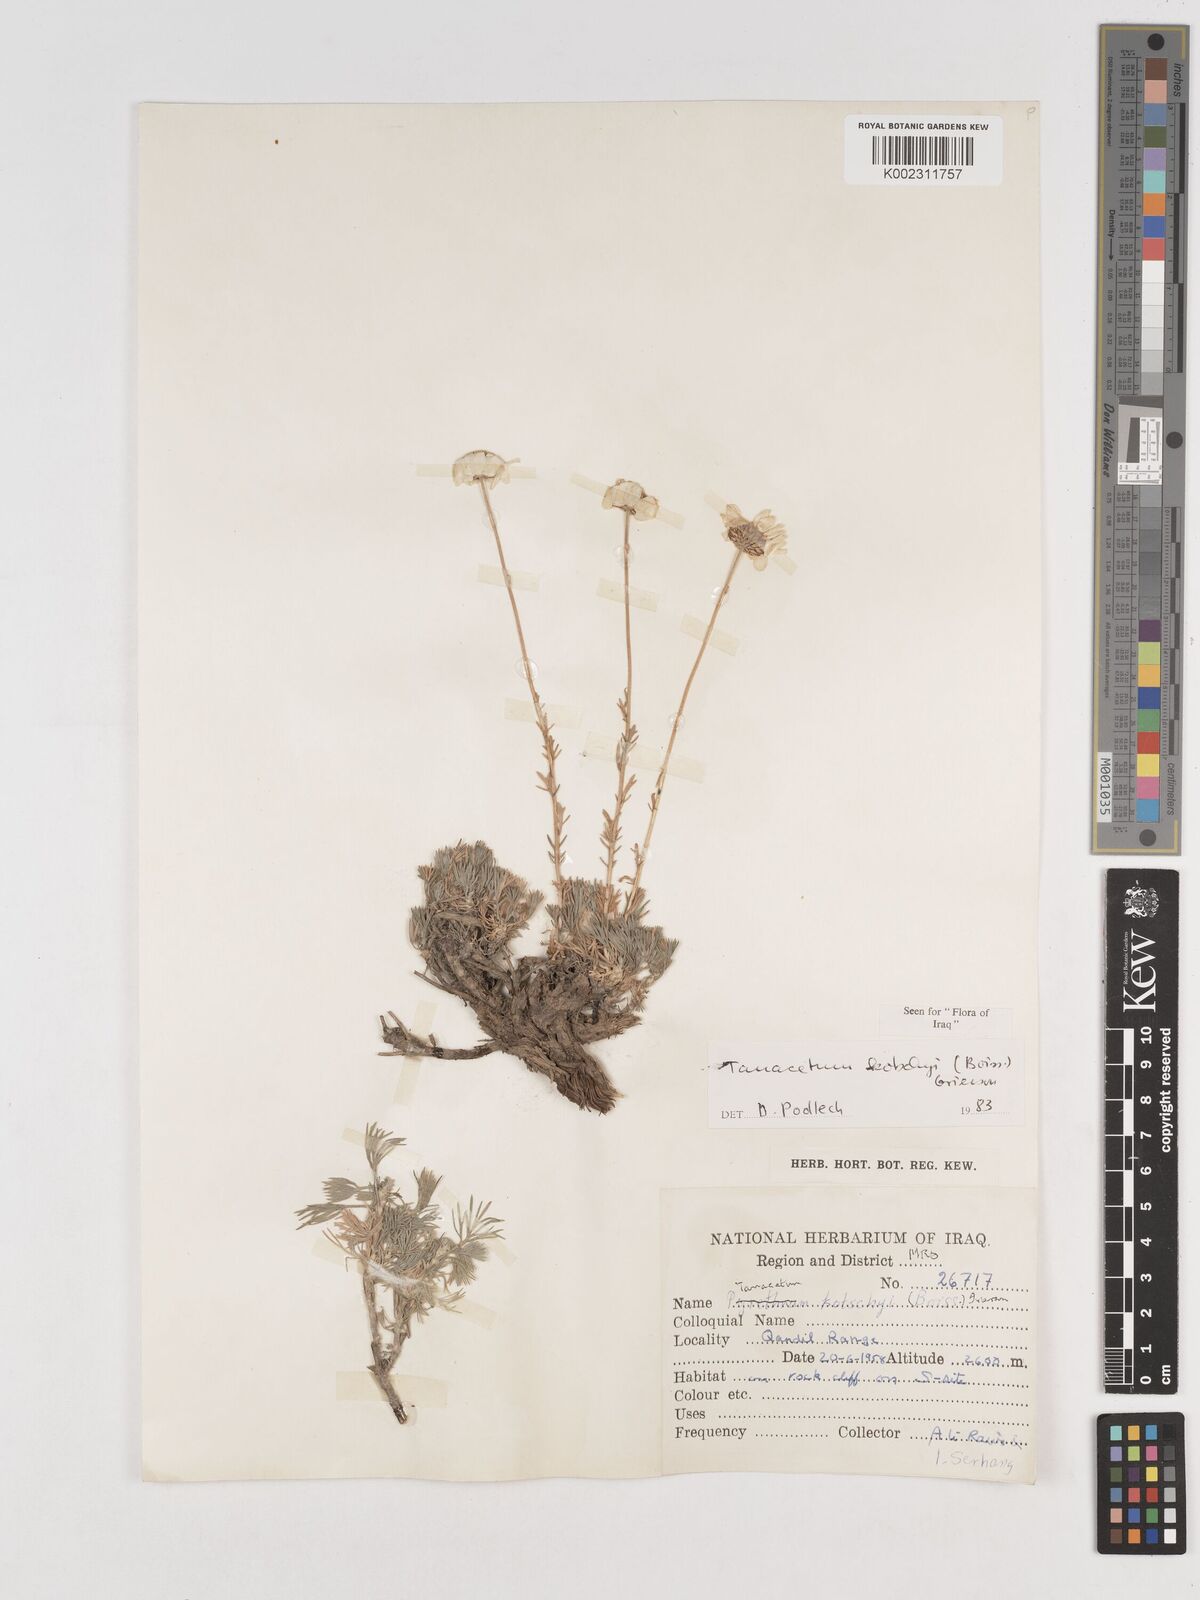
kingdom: Plantae
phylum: Tracheophyta
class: Magnoliopsida
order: Asterales
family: Asteraceae
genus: Tanacetum
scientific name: Tanacetum polycephalum
